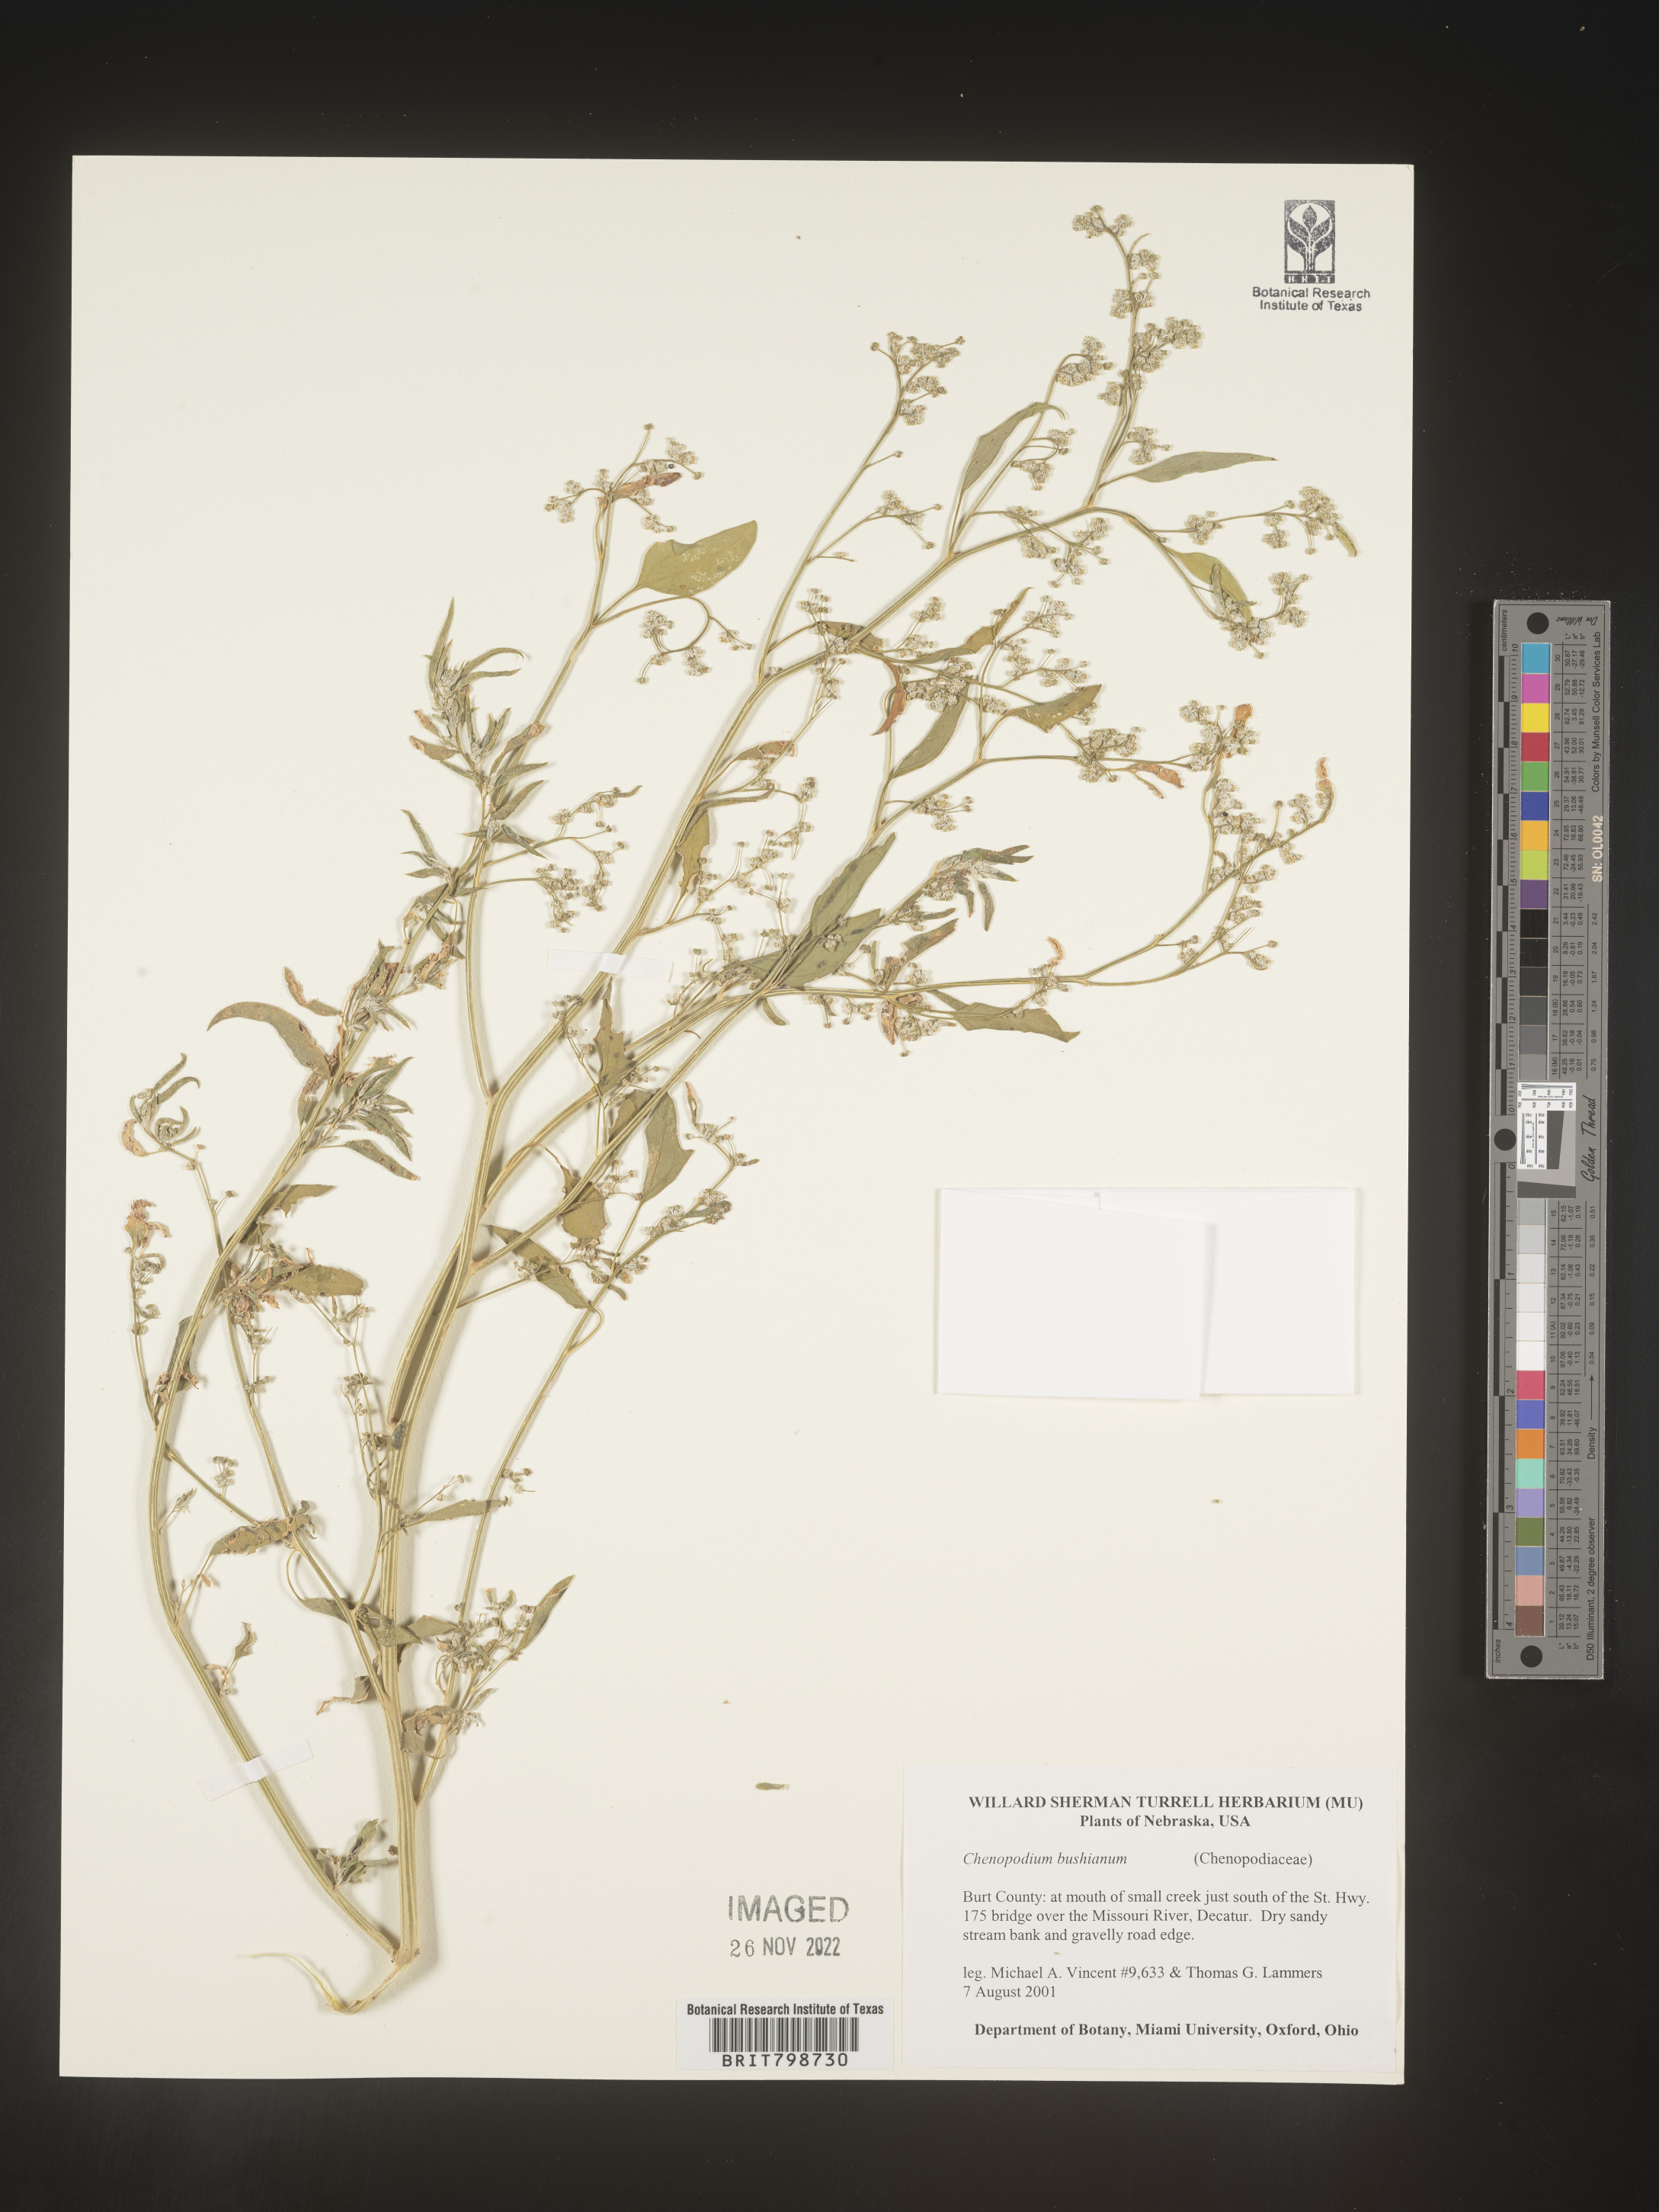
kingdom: Plantae
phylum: Tracheophyta
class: Magnoliopsida
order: Caryophyllales
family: Amaranthaceae
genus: Chenopodium
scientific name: Chenopodium berlandieri
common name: Pit-seed goosefoot
